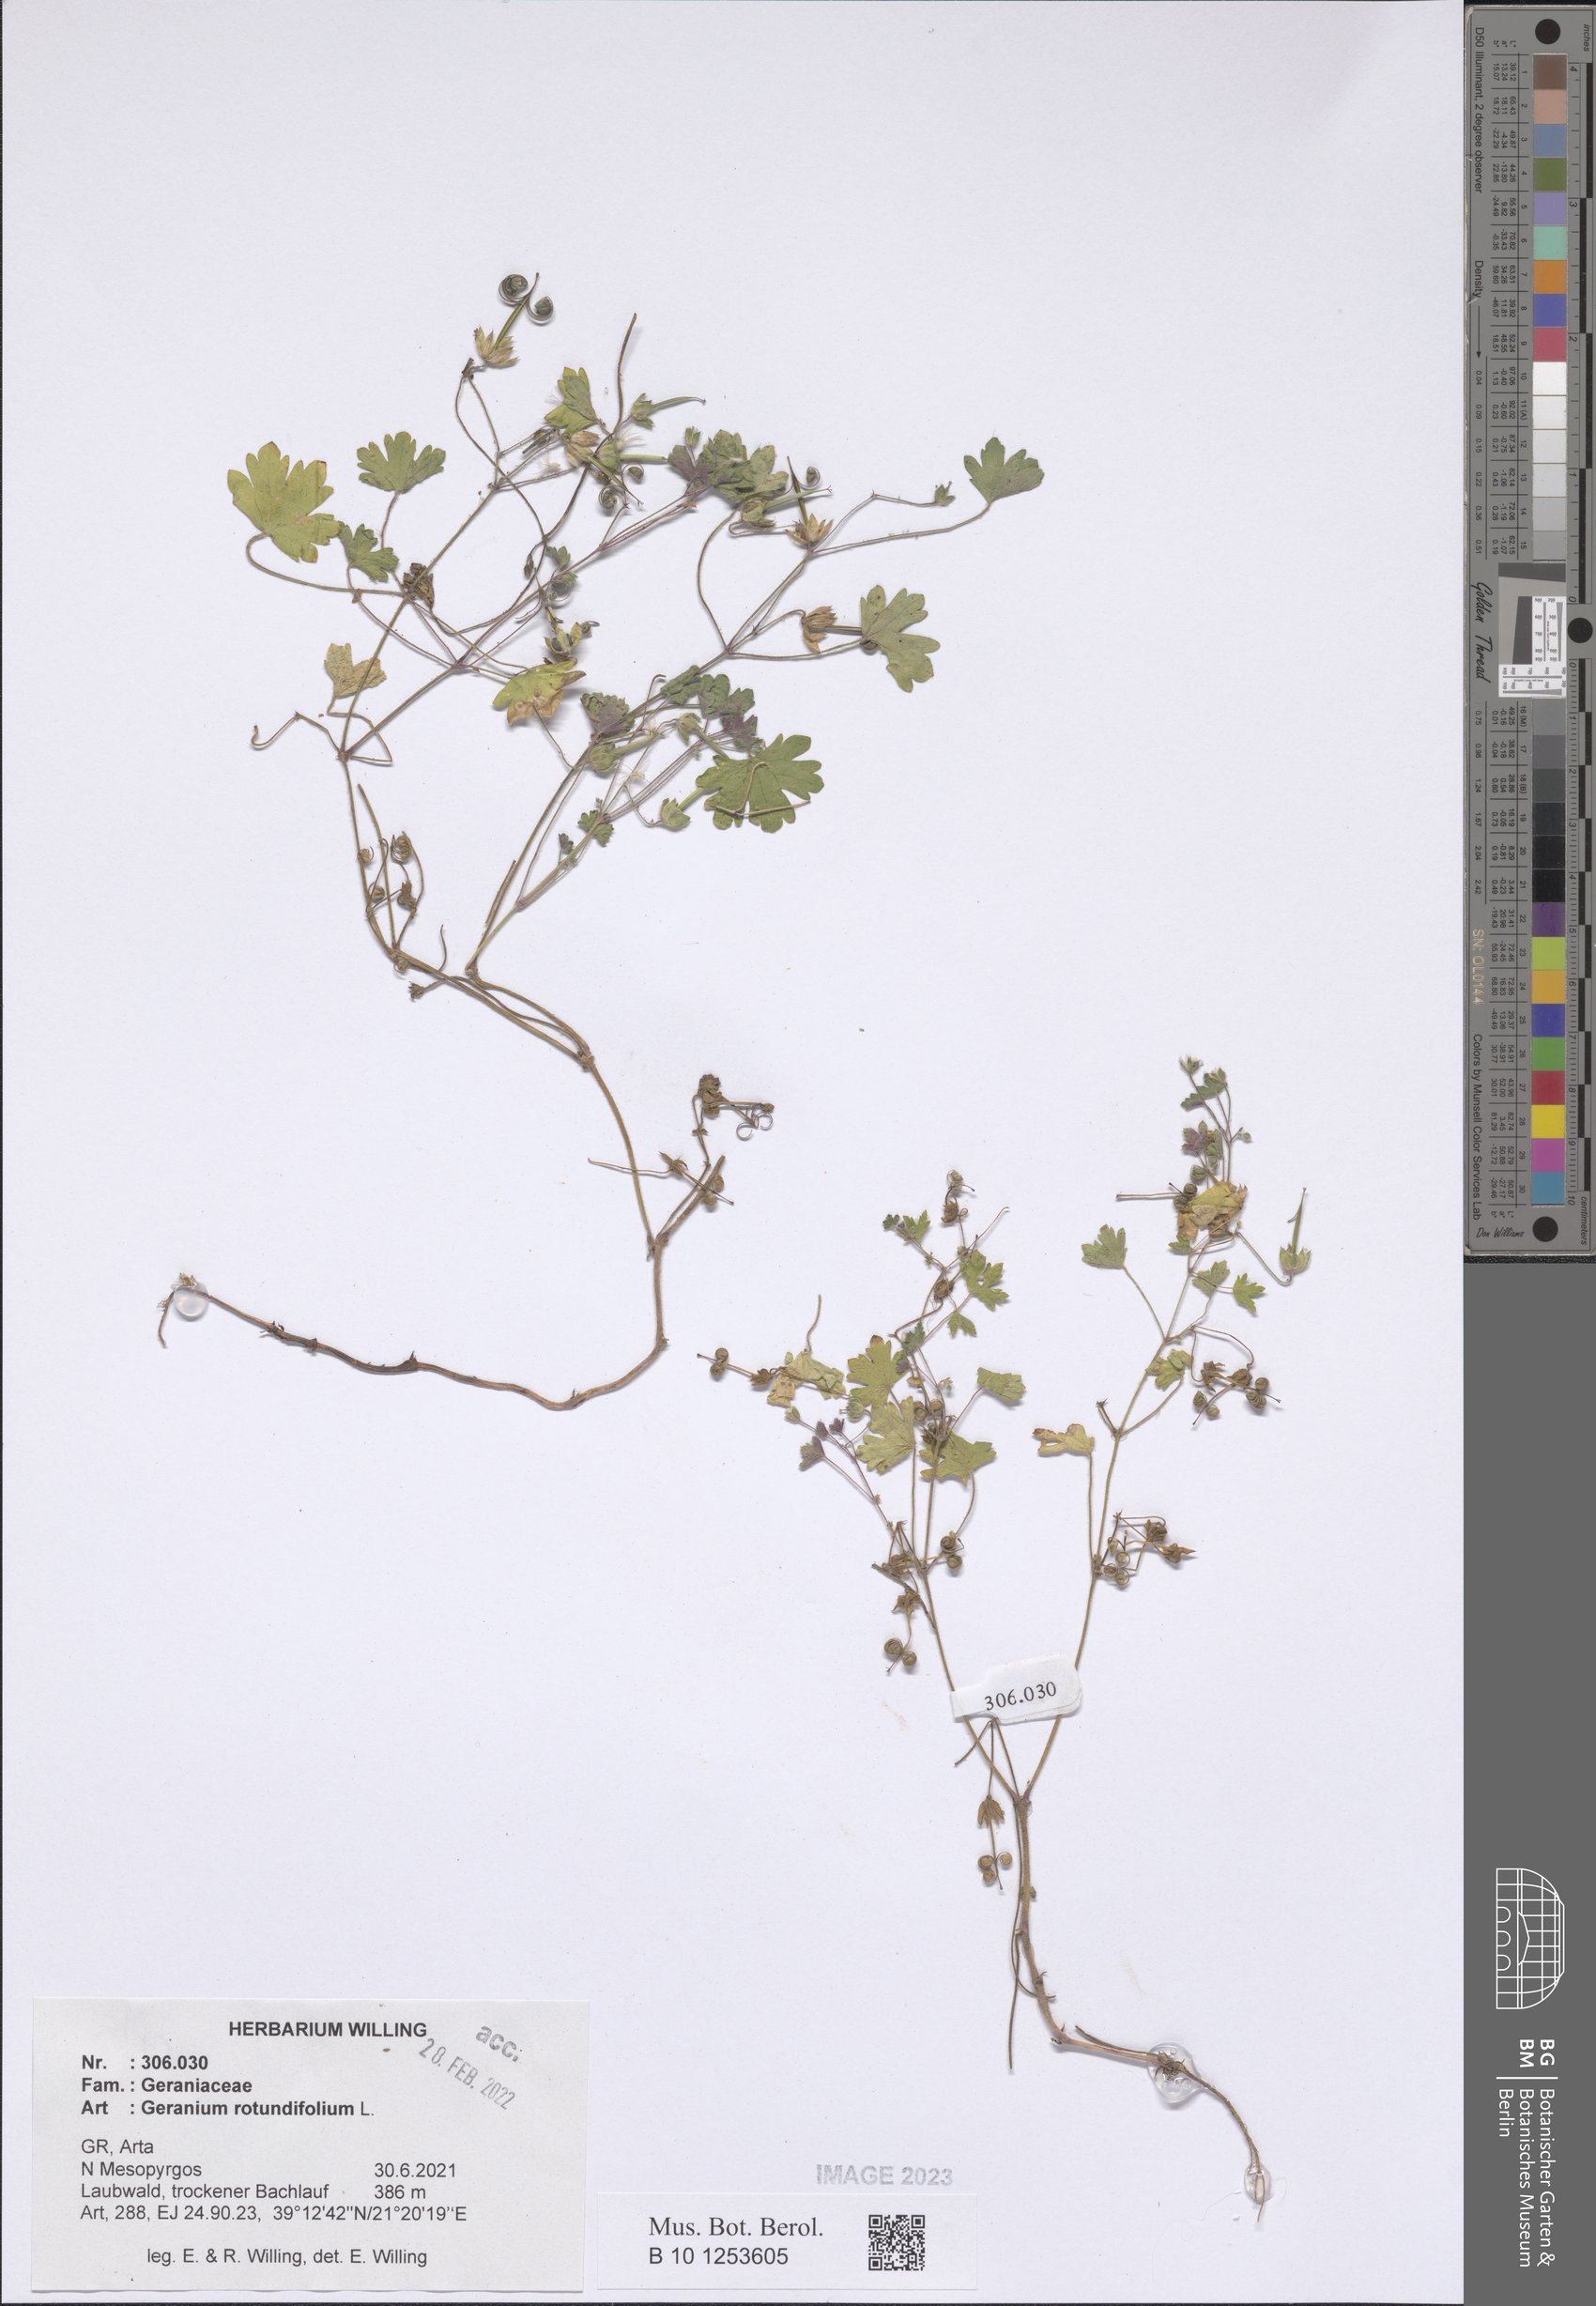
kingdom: Plantae
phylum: Tracheophyta
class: Magnoliopsida
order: Geraniales
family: Geraniaceae
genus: Geranium
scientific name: Geranium rotundifolium
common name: Round-leaved crane's-bill
